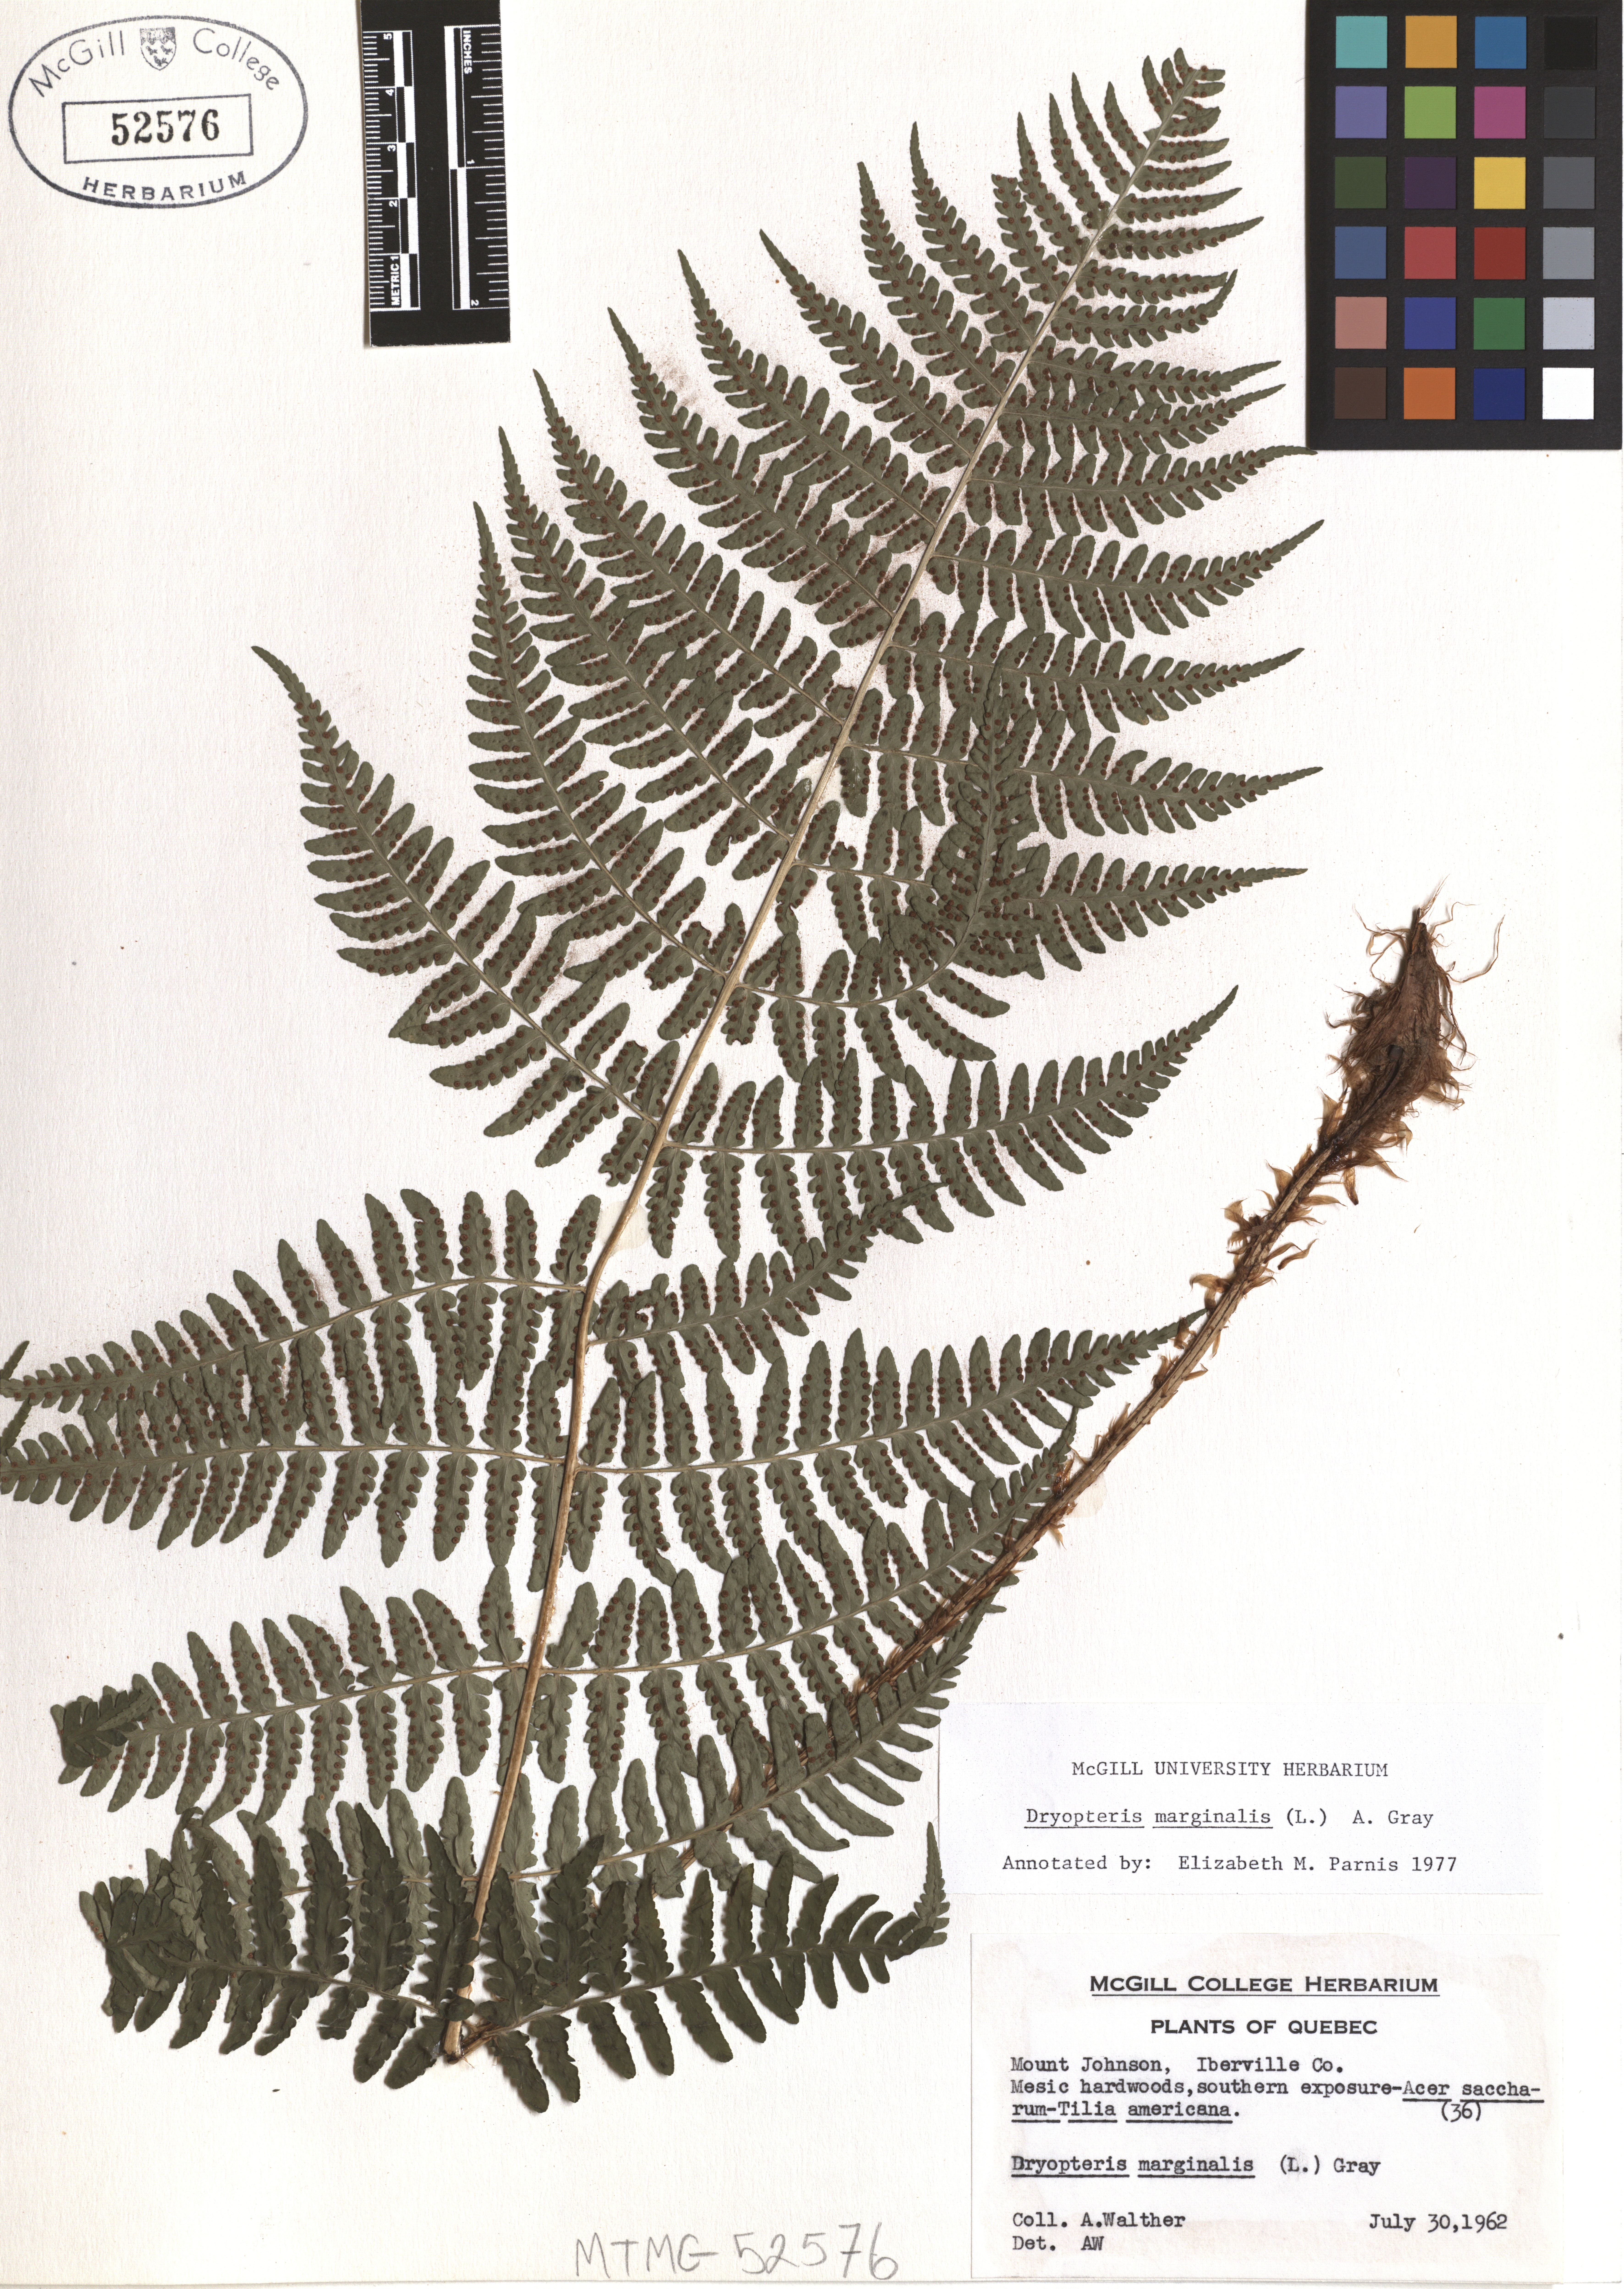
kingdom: Plantae
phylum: Tracheophyta
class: Polypodiopsida
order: Polypodiales
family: Dryopteridaceae
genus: Dryopteris
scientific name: Dryopteris marginalis
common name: Marginal wood fern
